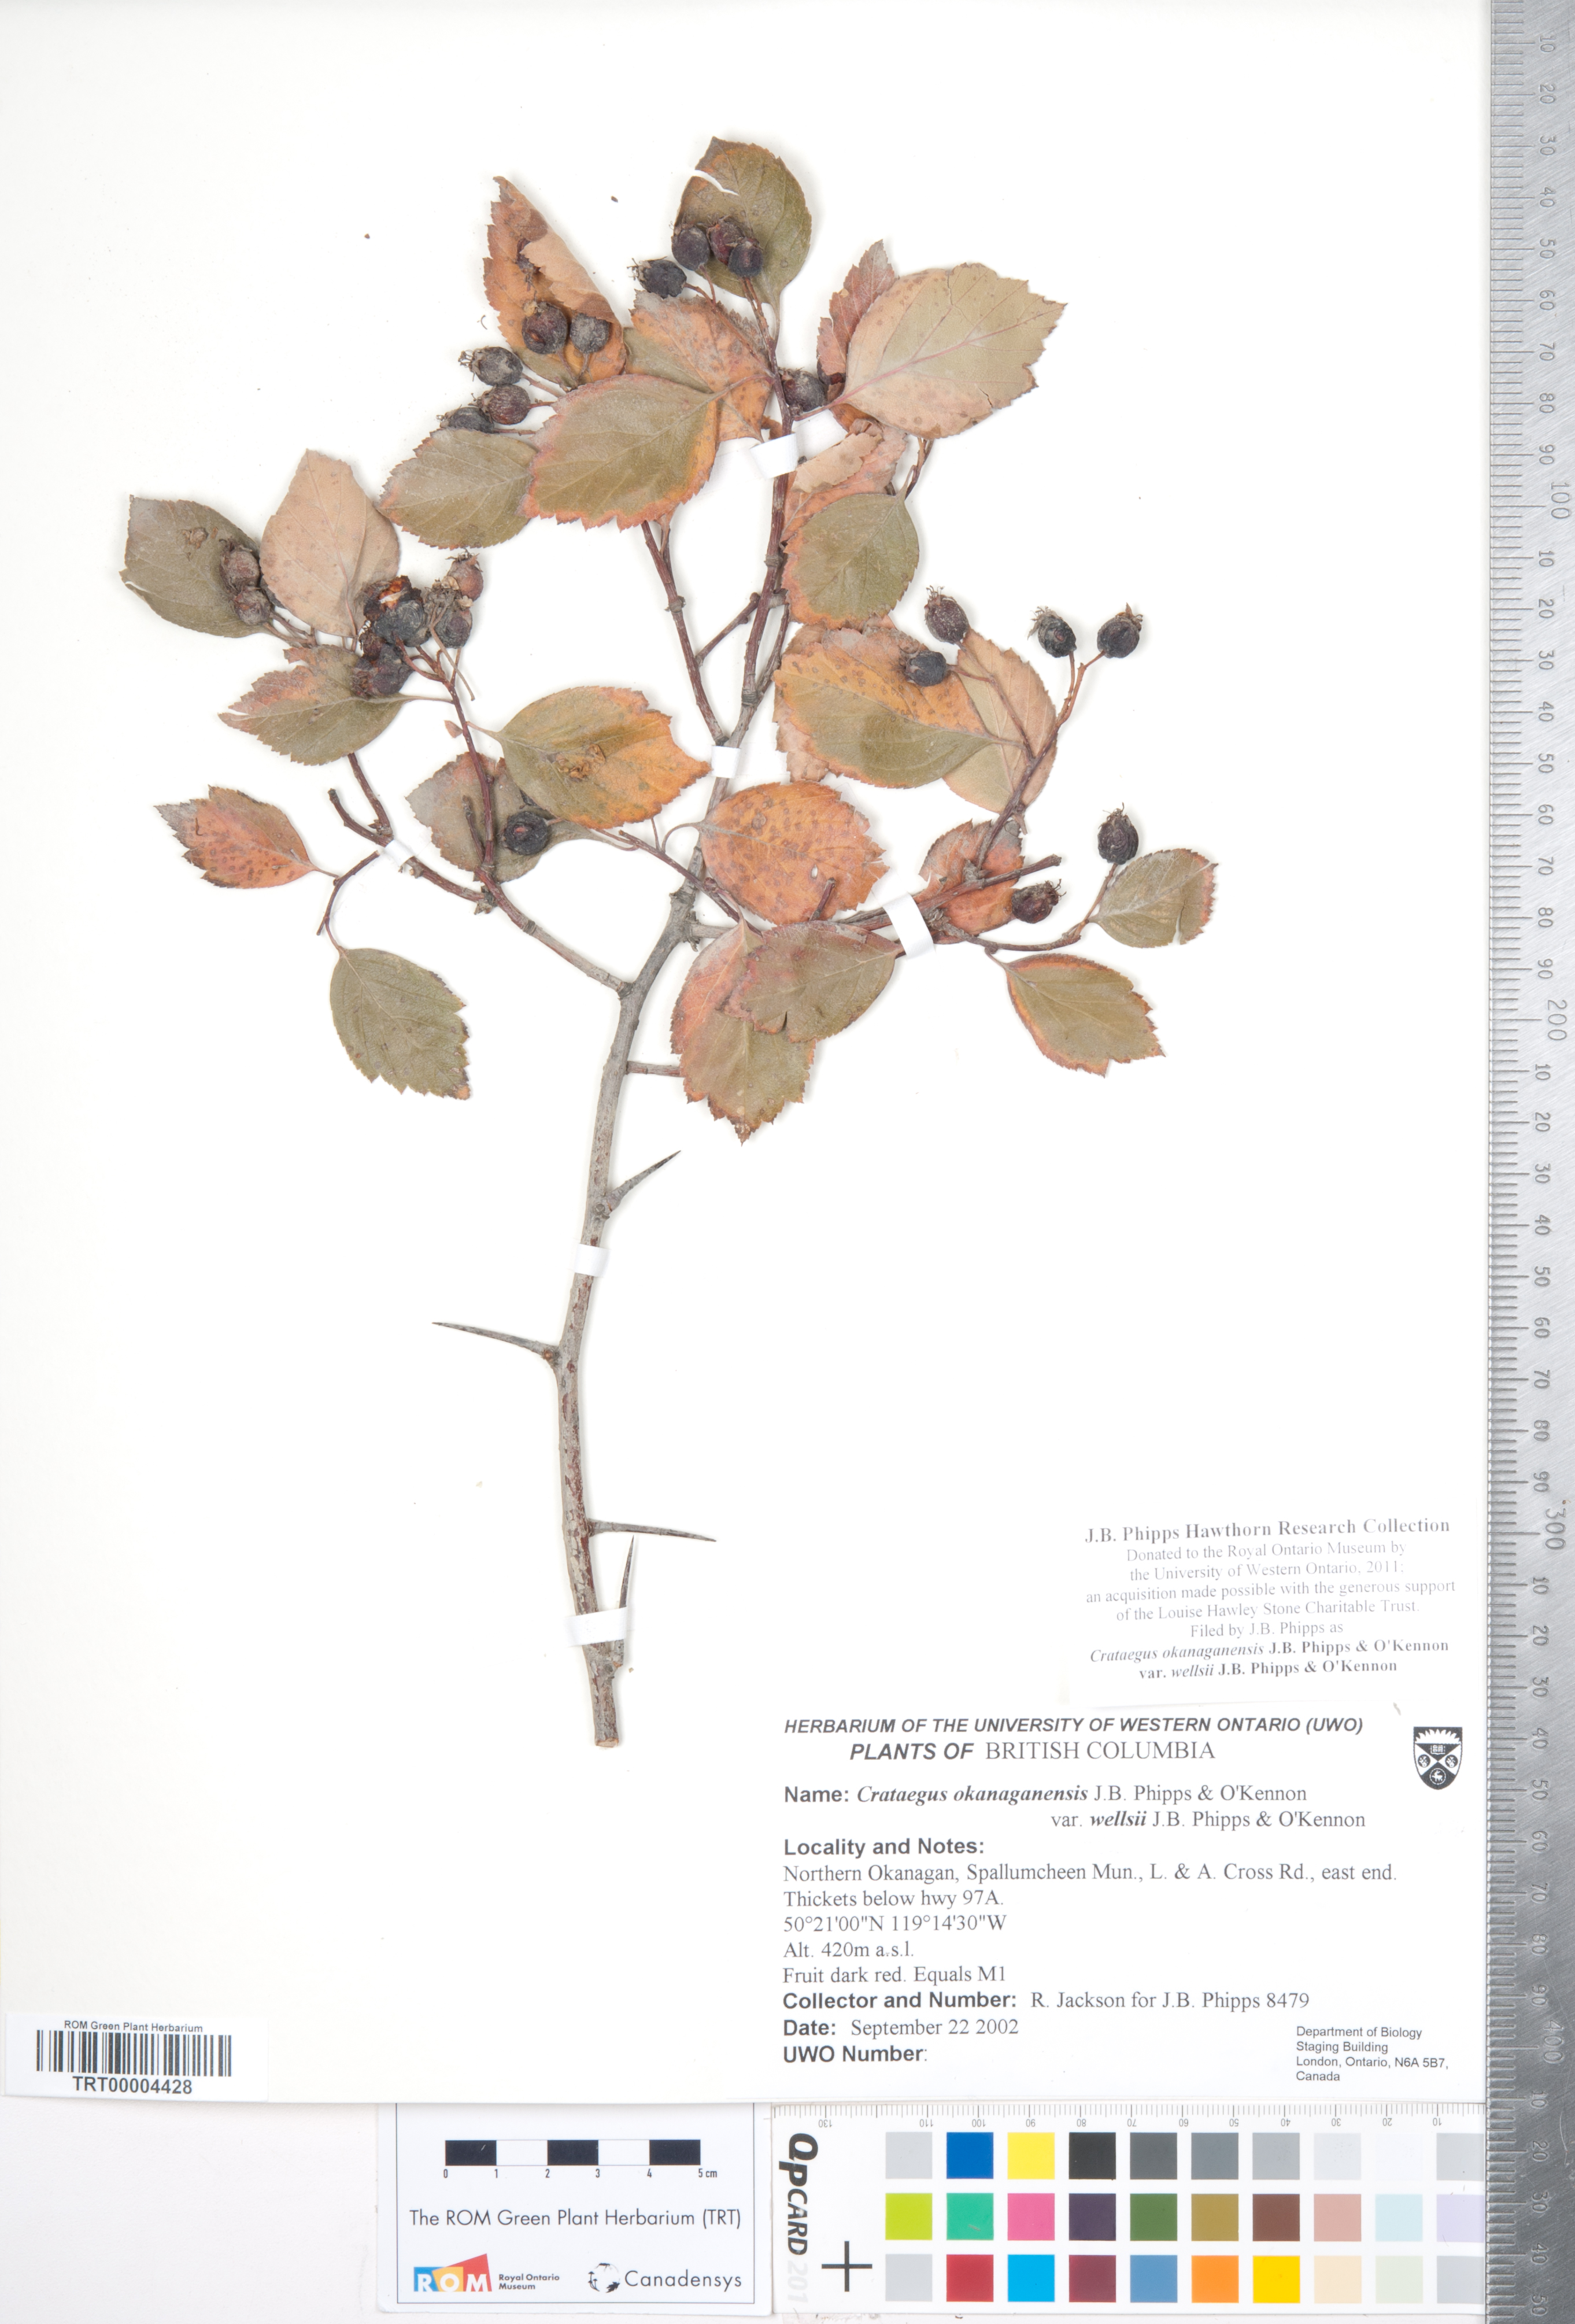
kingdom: Plantae
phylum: Tracheophyta
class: Magnoliopsida
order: Rosales
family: Rosaceae
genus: Crataegus
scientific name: Crataegus okanaganensis
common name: Okanagan valley hawthorn
